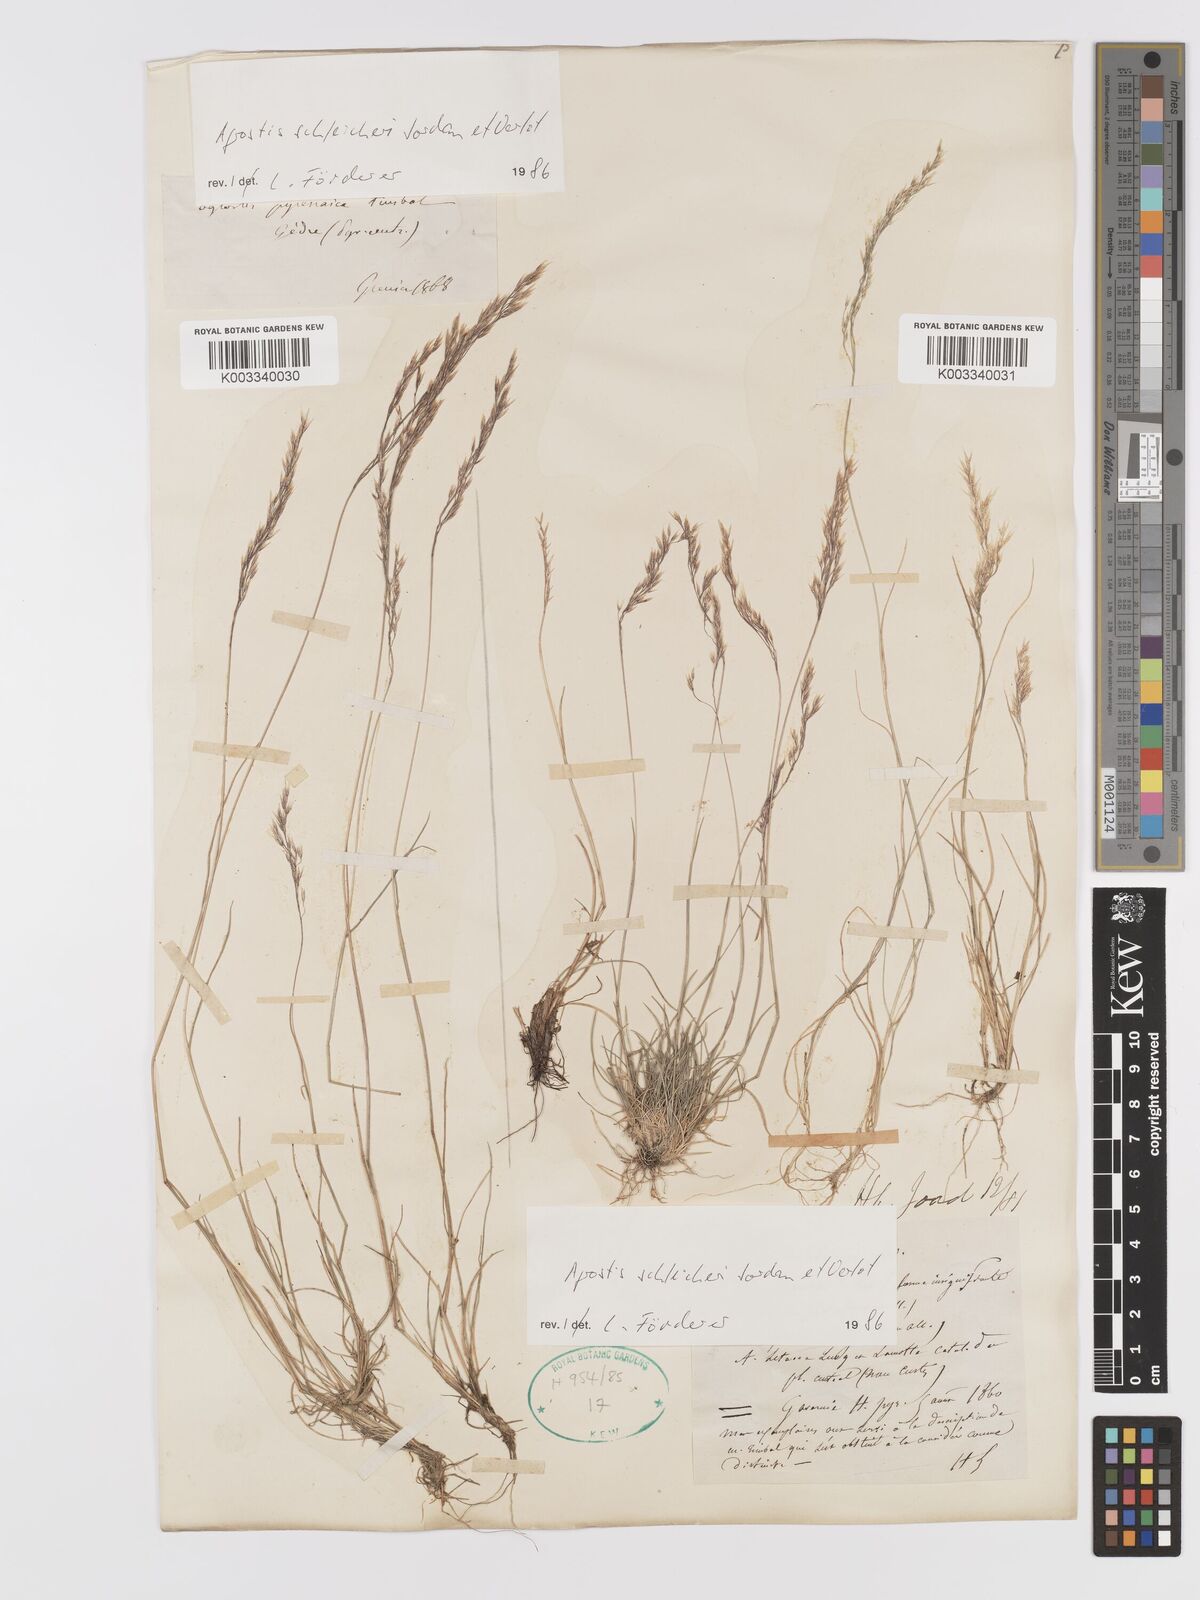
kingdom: Plantae
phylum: Tracheophyta
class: Liliopsida
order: Poales
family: Poaceae
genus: Alpagrostis
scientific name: Alpagrostis schleicheri
